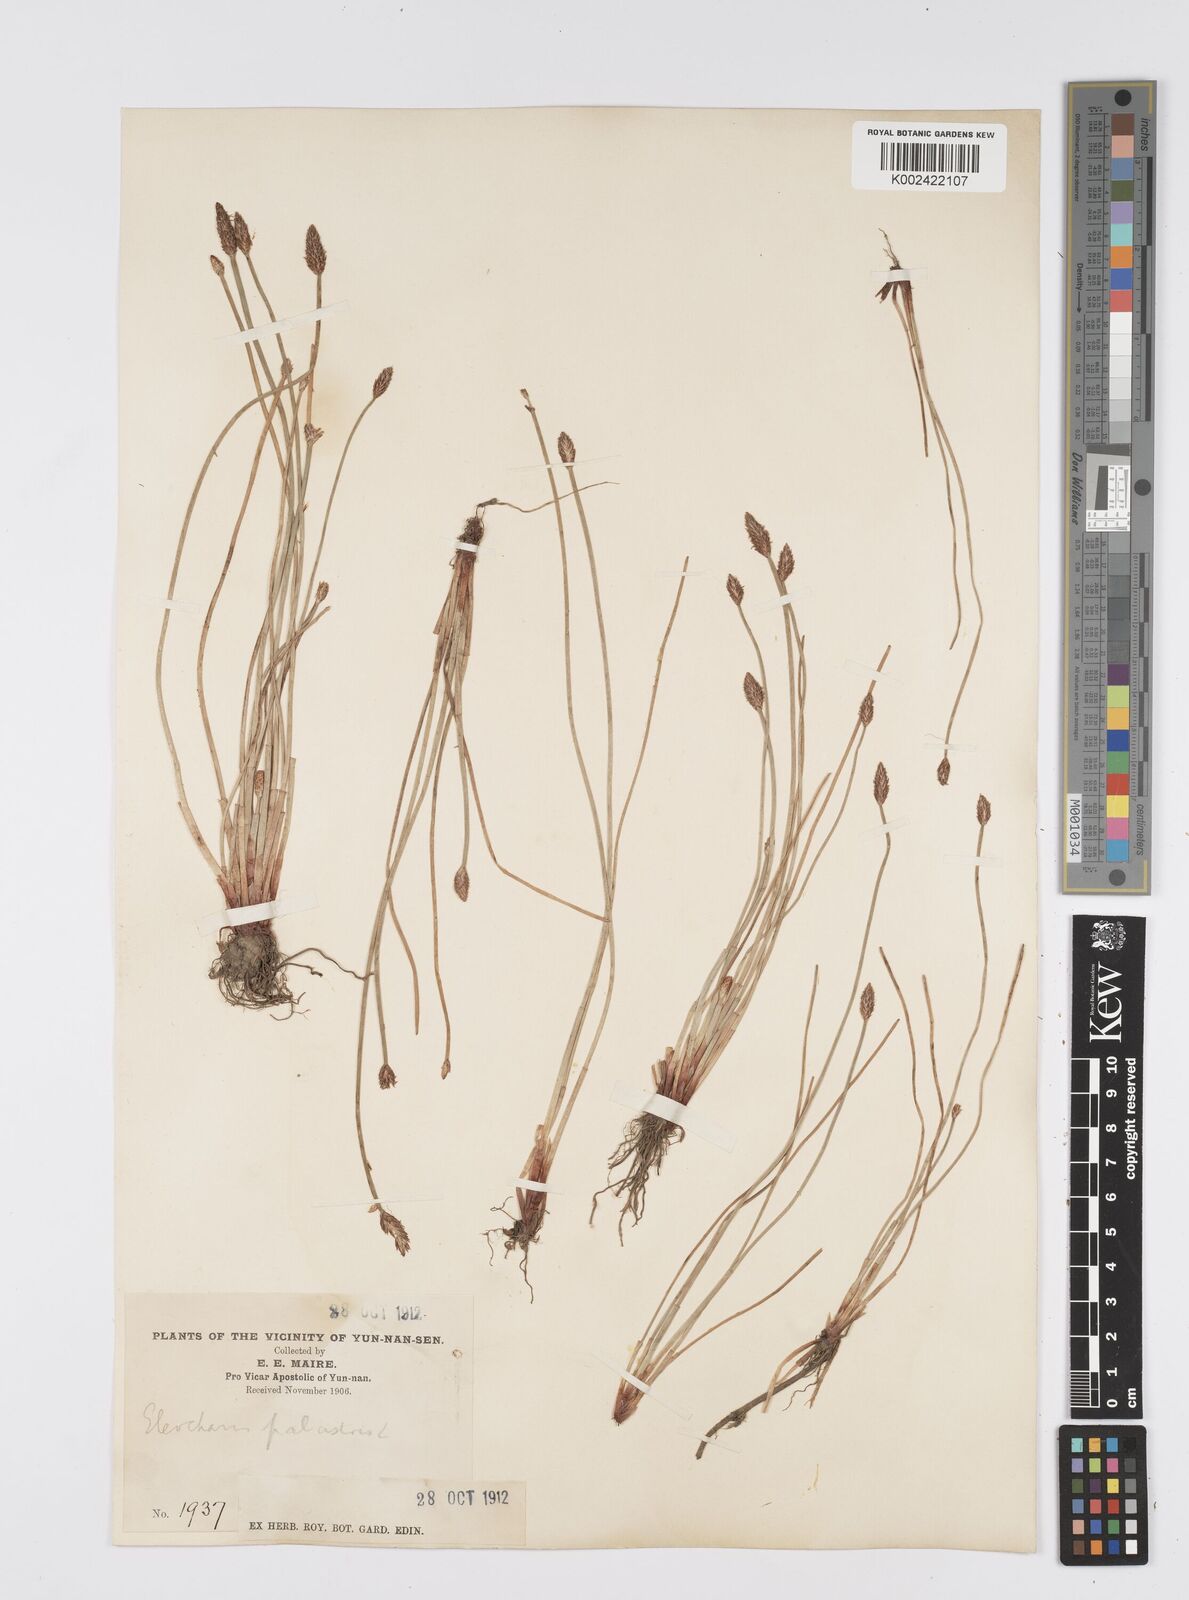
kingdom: Plantae
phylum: Tracheophyta
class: Liliopsida
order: Poales
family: Cyperaceae
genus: Eleocharis
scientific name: Eleocharis palustris
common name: Common spike-rush
